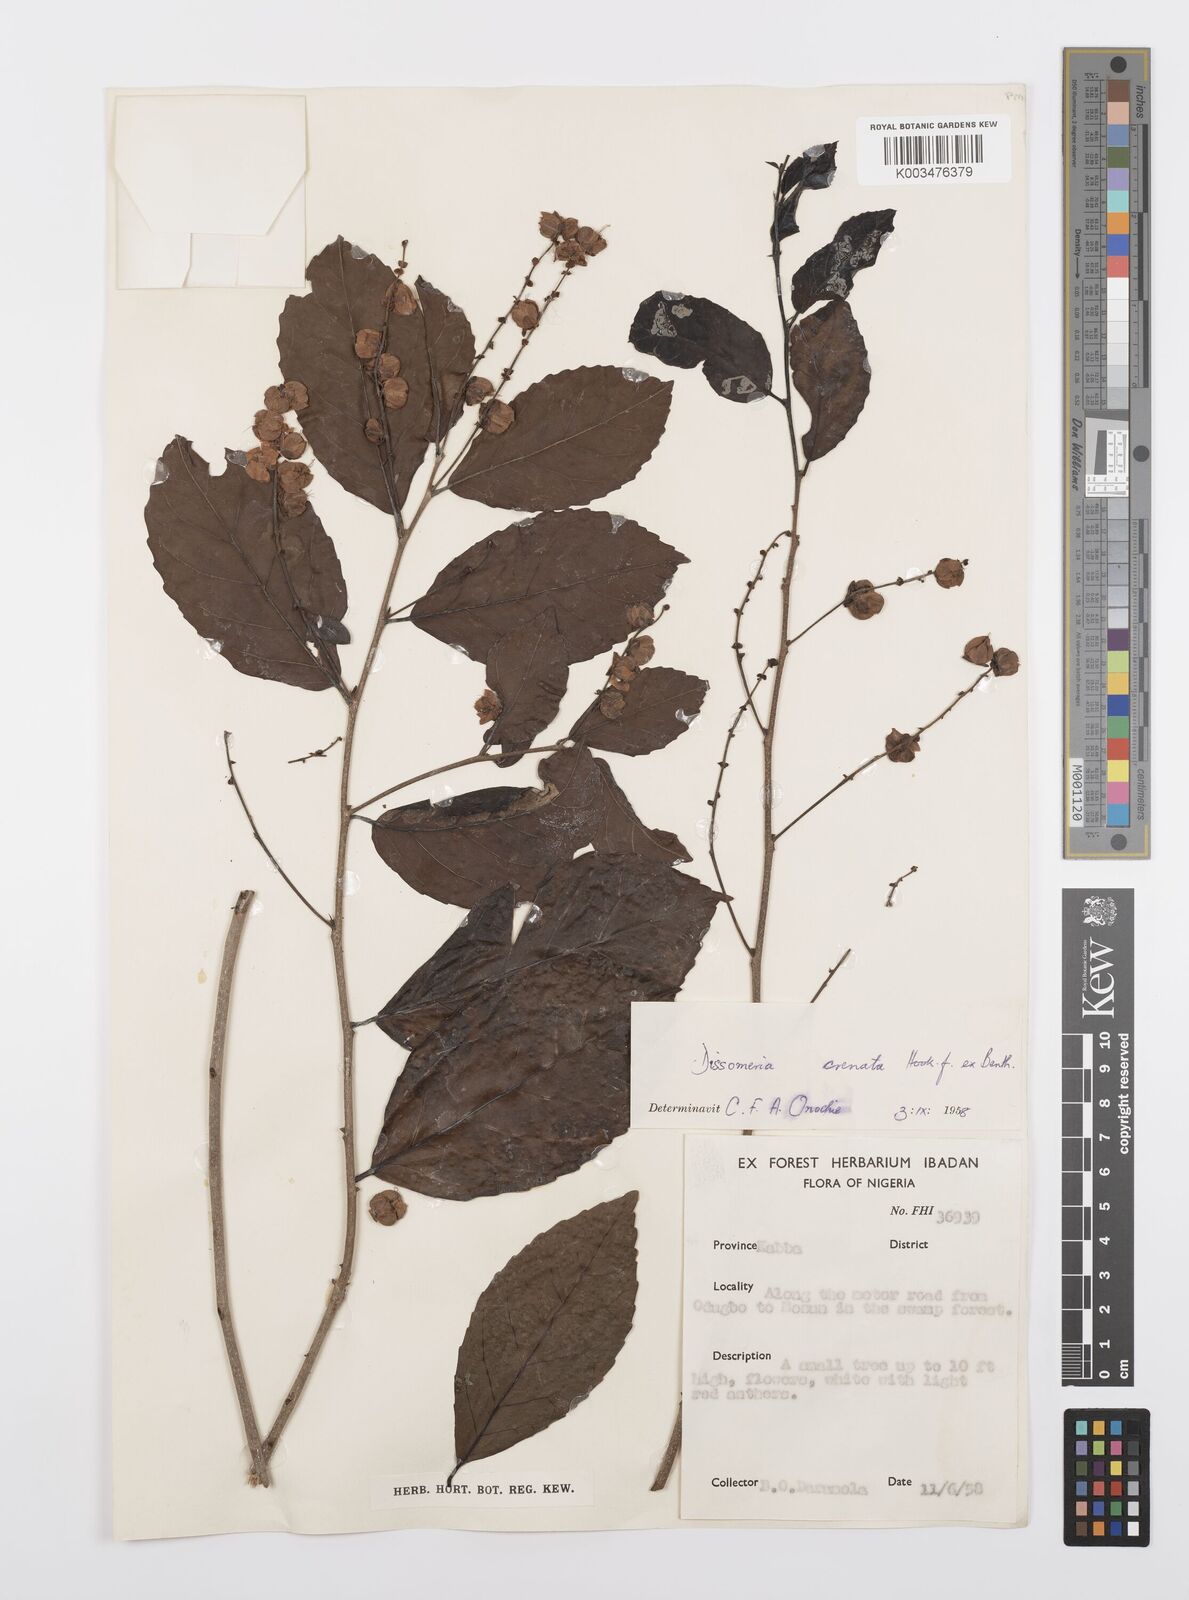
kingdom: Plantae
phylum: Tracheophyta
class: Magnoliopsida
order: Malpighiales
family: Salicaceae
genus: Dissomeria
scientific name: Dissomeria crenata
